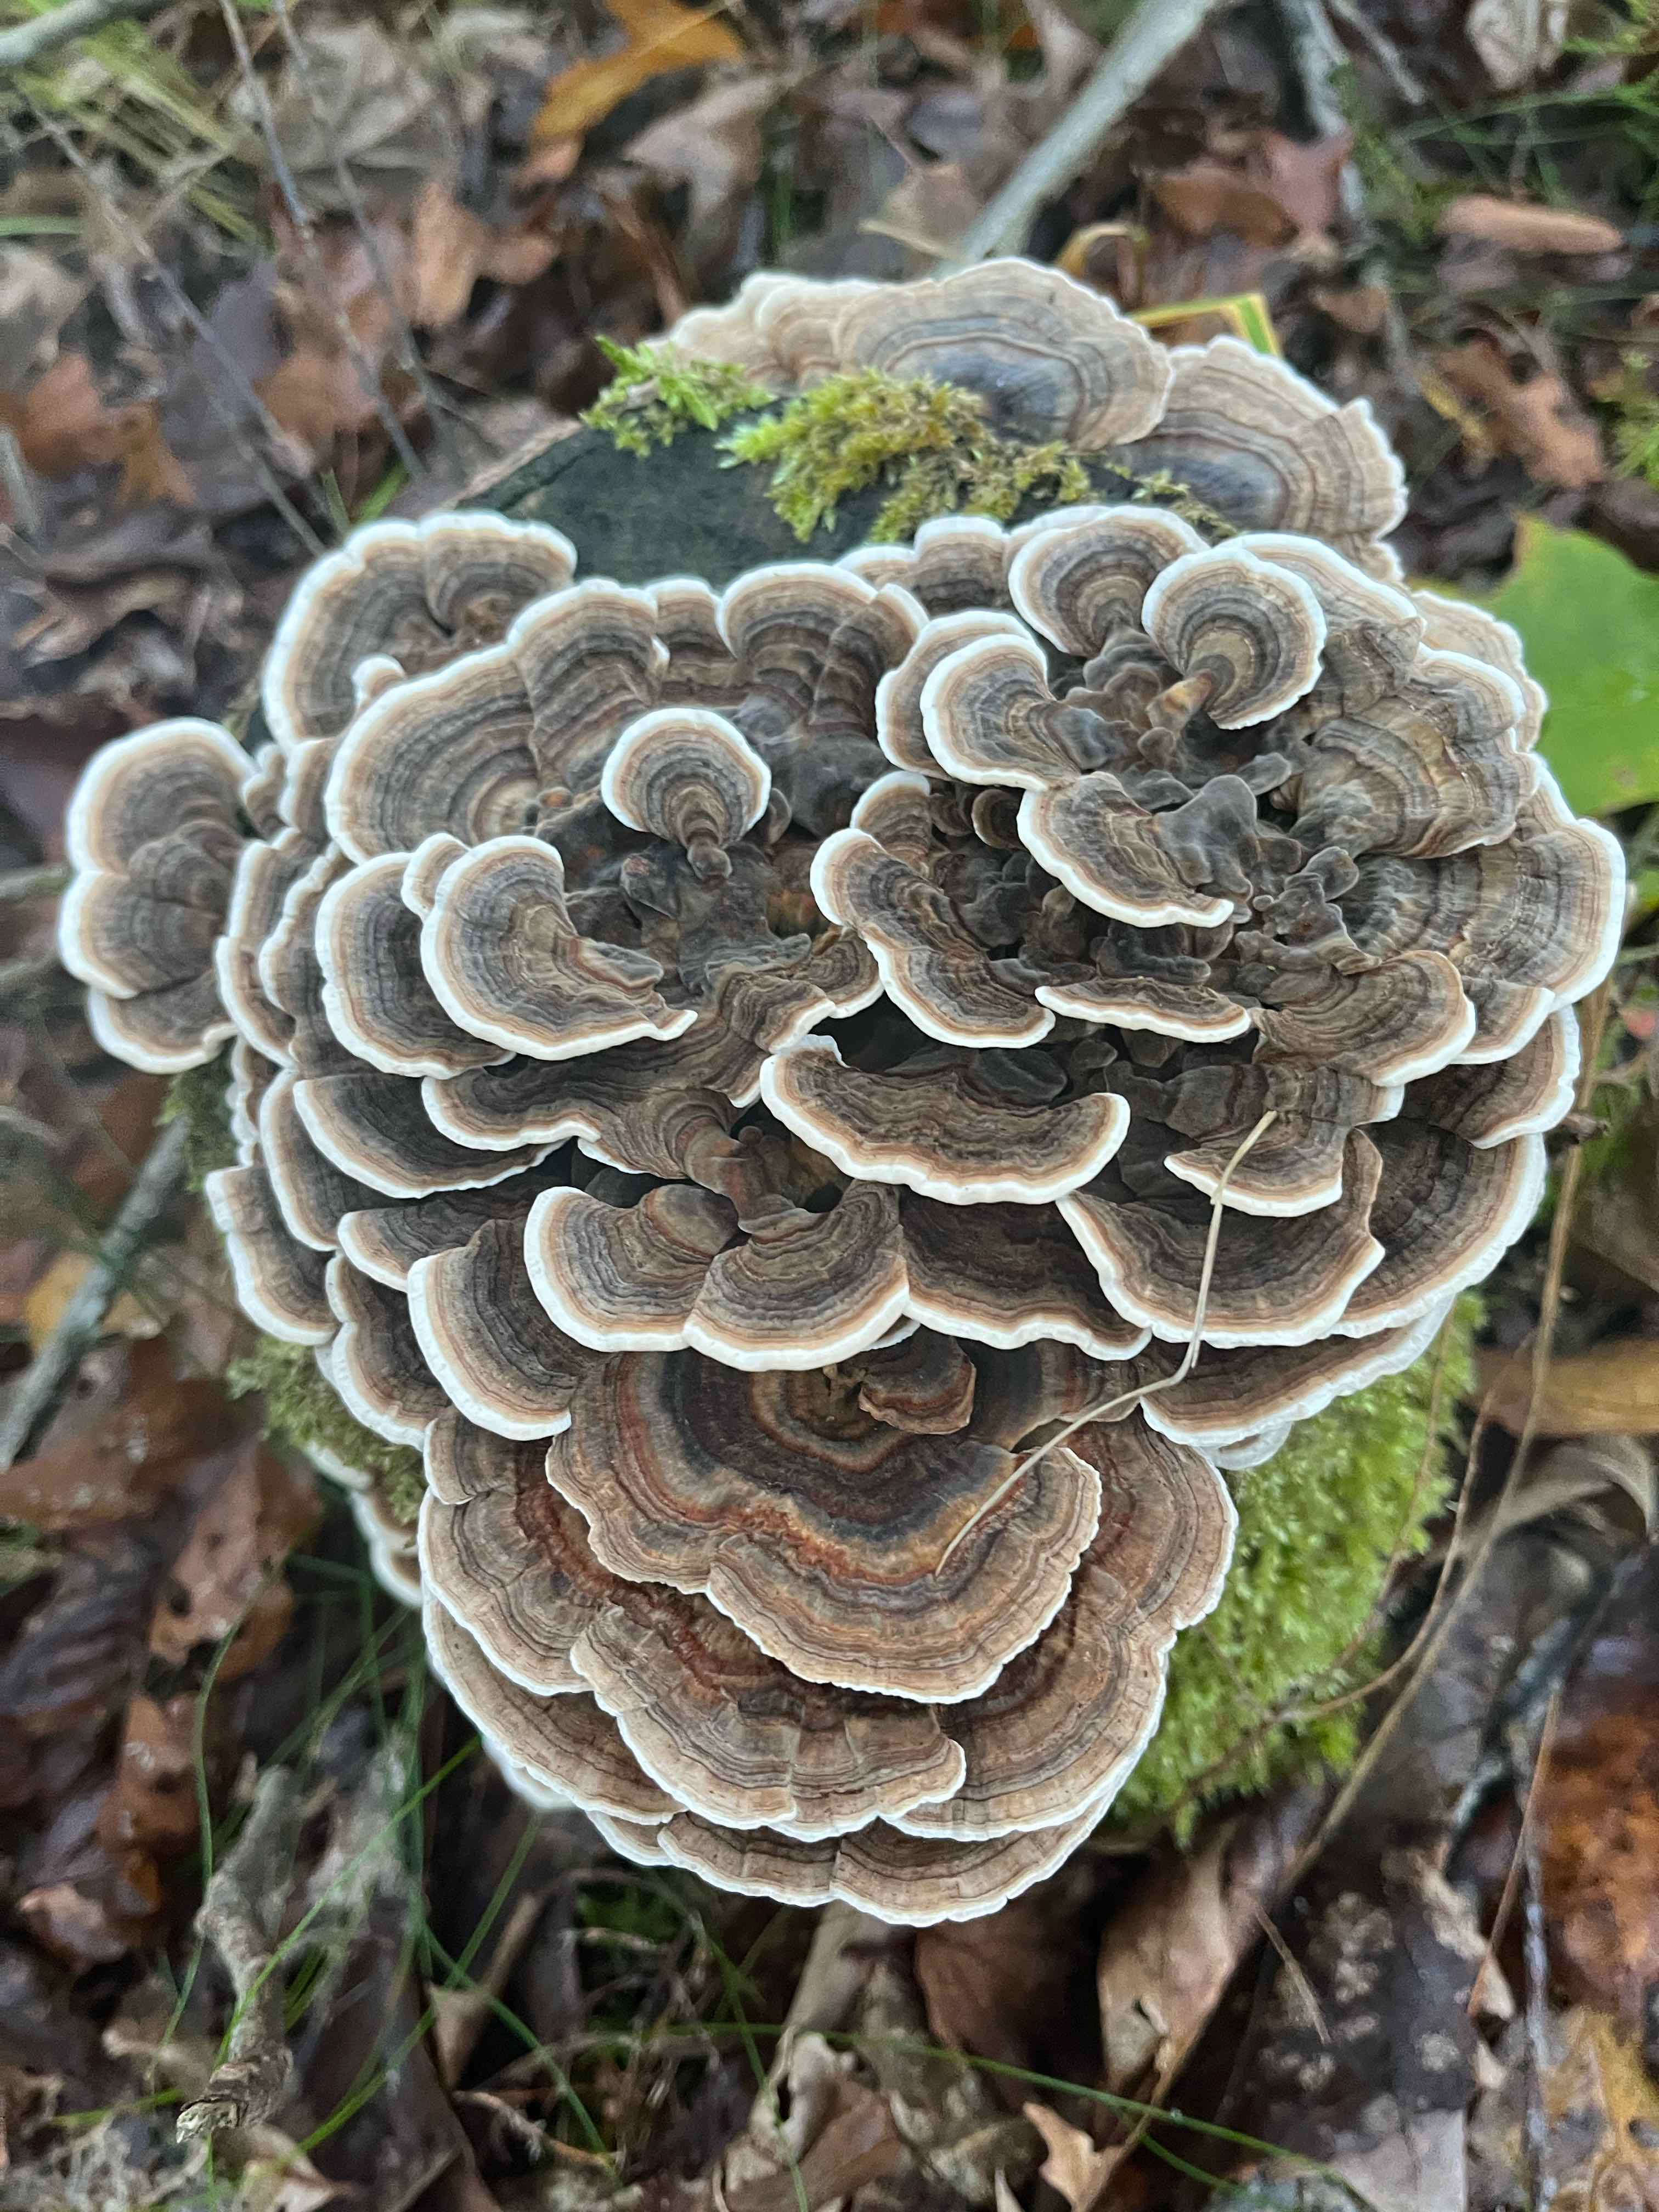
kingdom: Fungi
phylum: Basidiomycota
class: Agaricomycetes
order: Polyporales
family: Polyporaceae
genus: Trametes
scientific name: Trametes versicolor
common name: broget læderporesvamp
